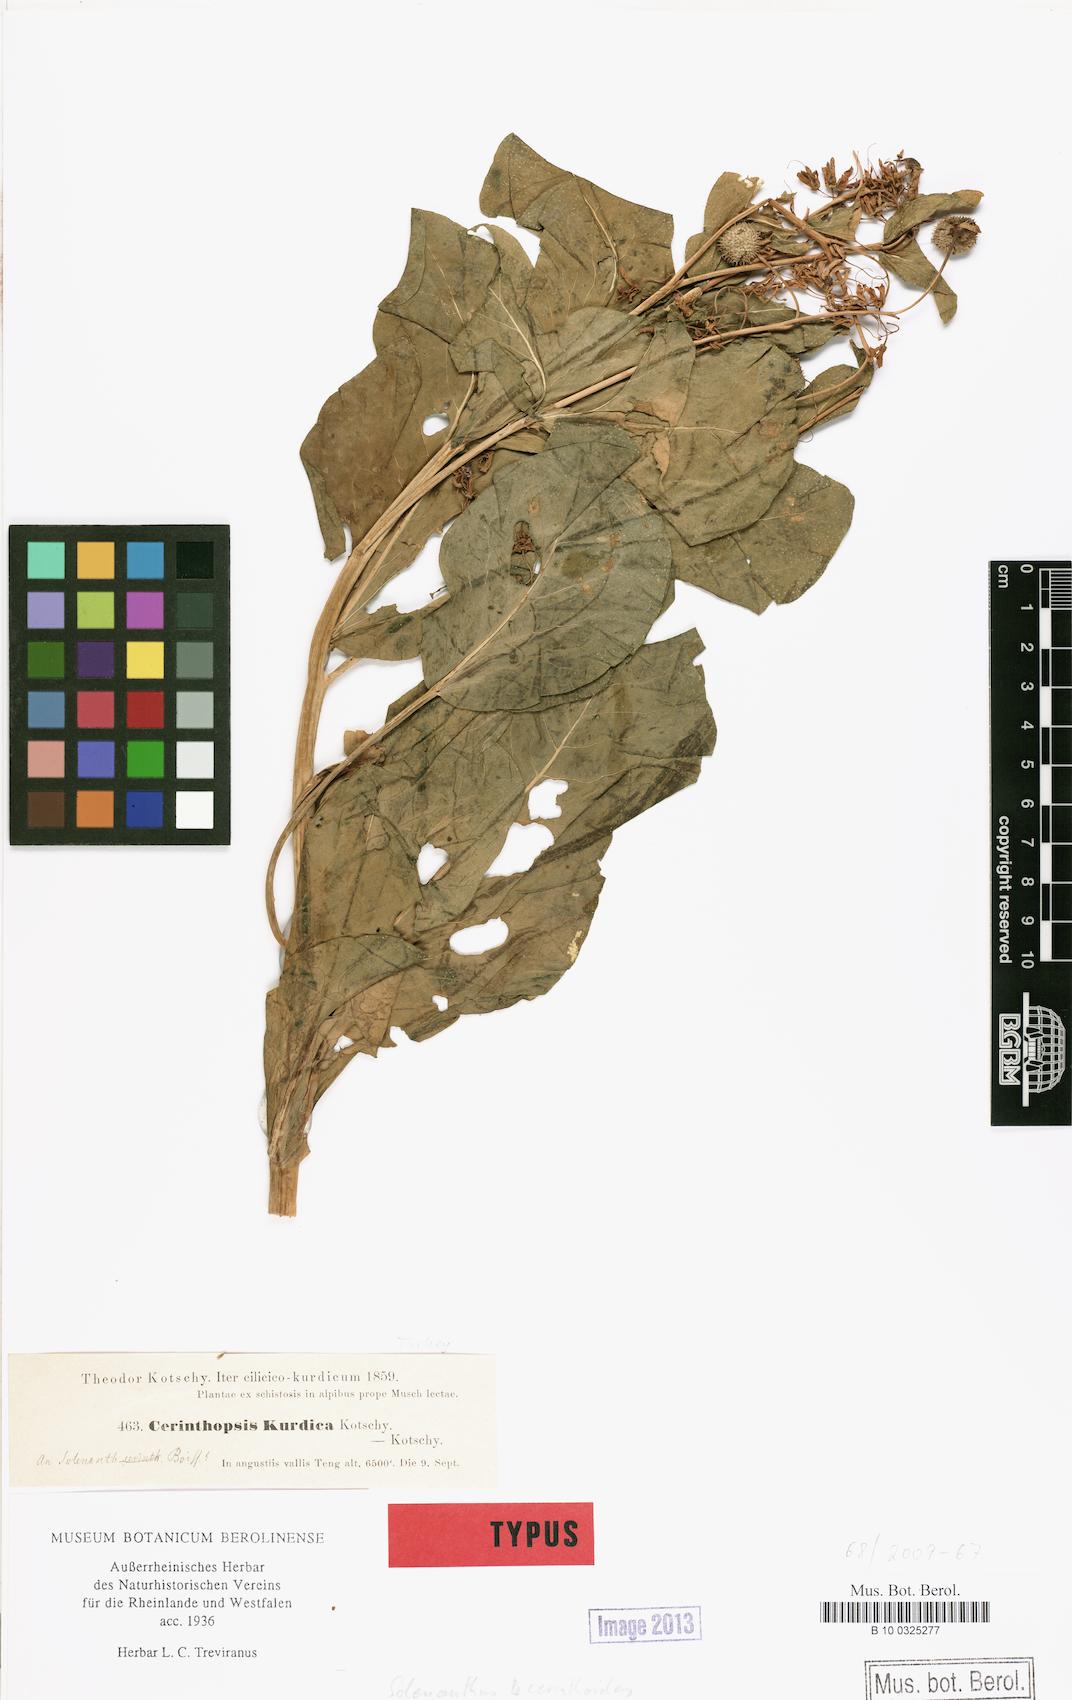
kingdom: Plantae
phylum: Tracheophyta
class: Magnoliopsida
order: Boraginales
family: Boraginaceae
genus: Lindelofia
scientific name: Lindelofia cerinthoides
